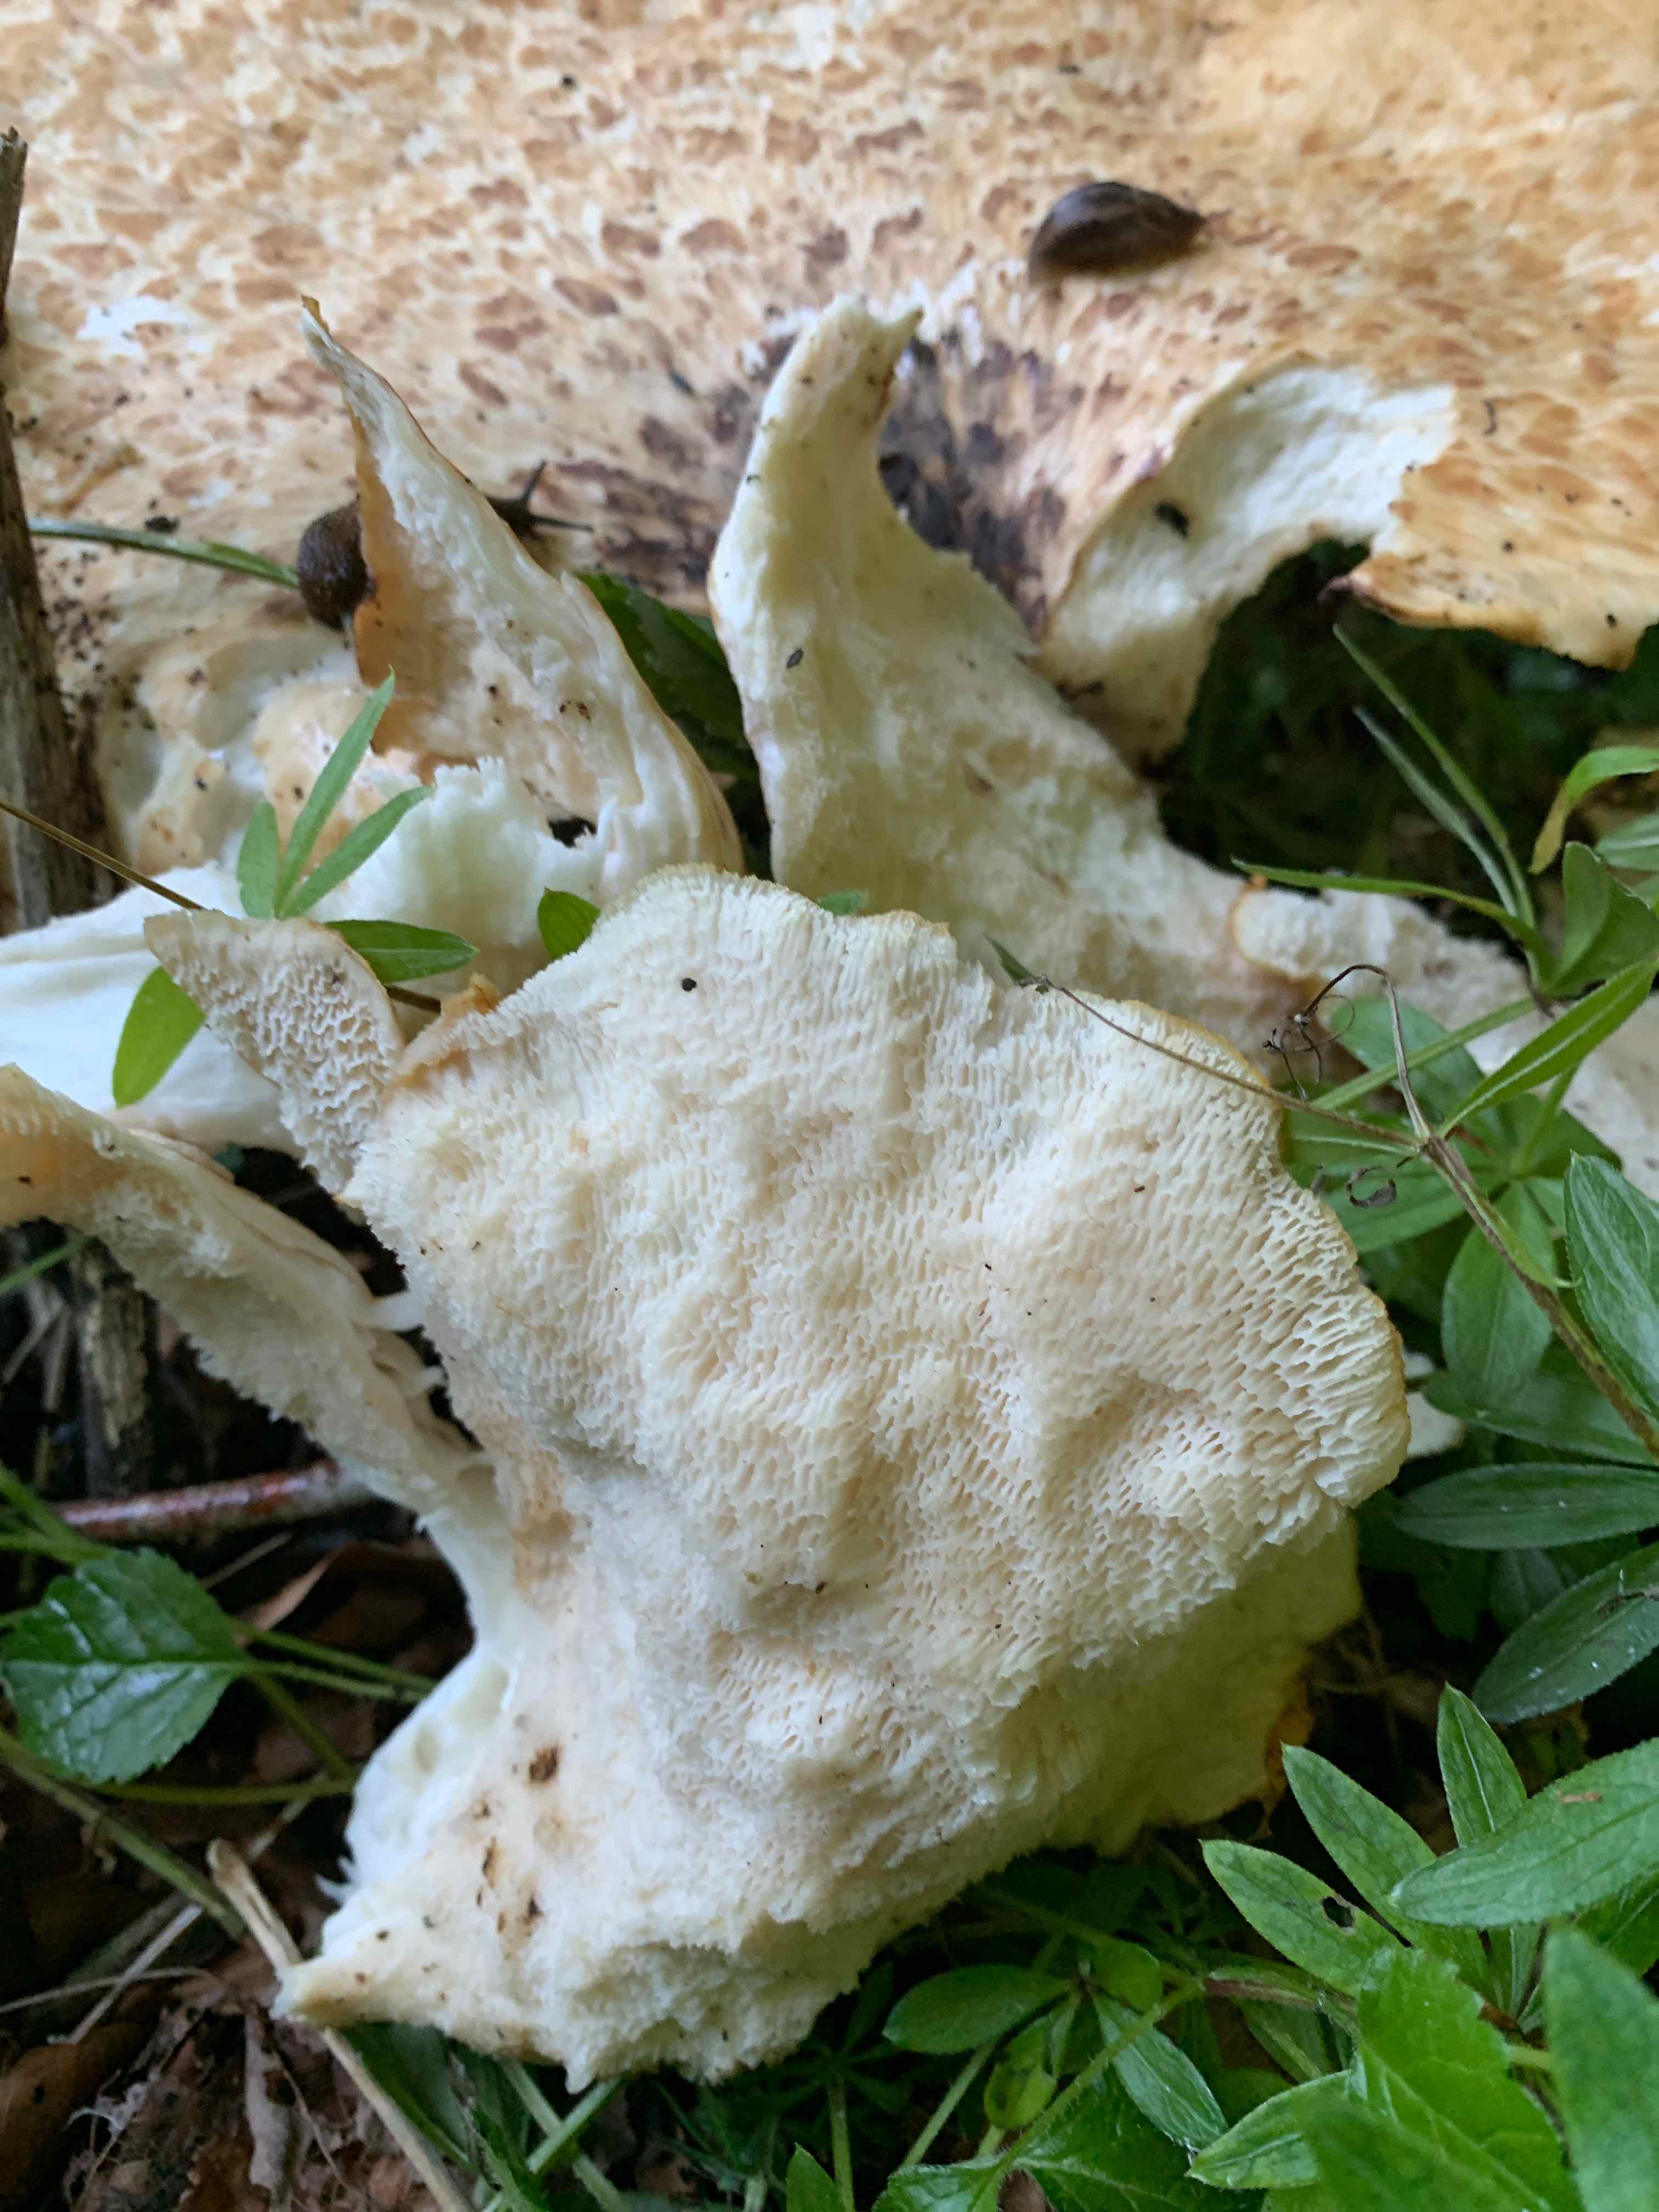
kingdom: Fungi
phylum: Basidiomycota
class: Agaricomycetes
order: Polyporales
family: Polyporaceae
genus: Cerioporus
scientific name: Cerioporus squamosus
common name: skællet stilkporesvamp
